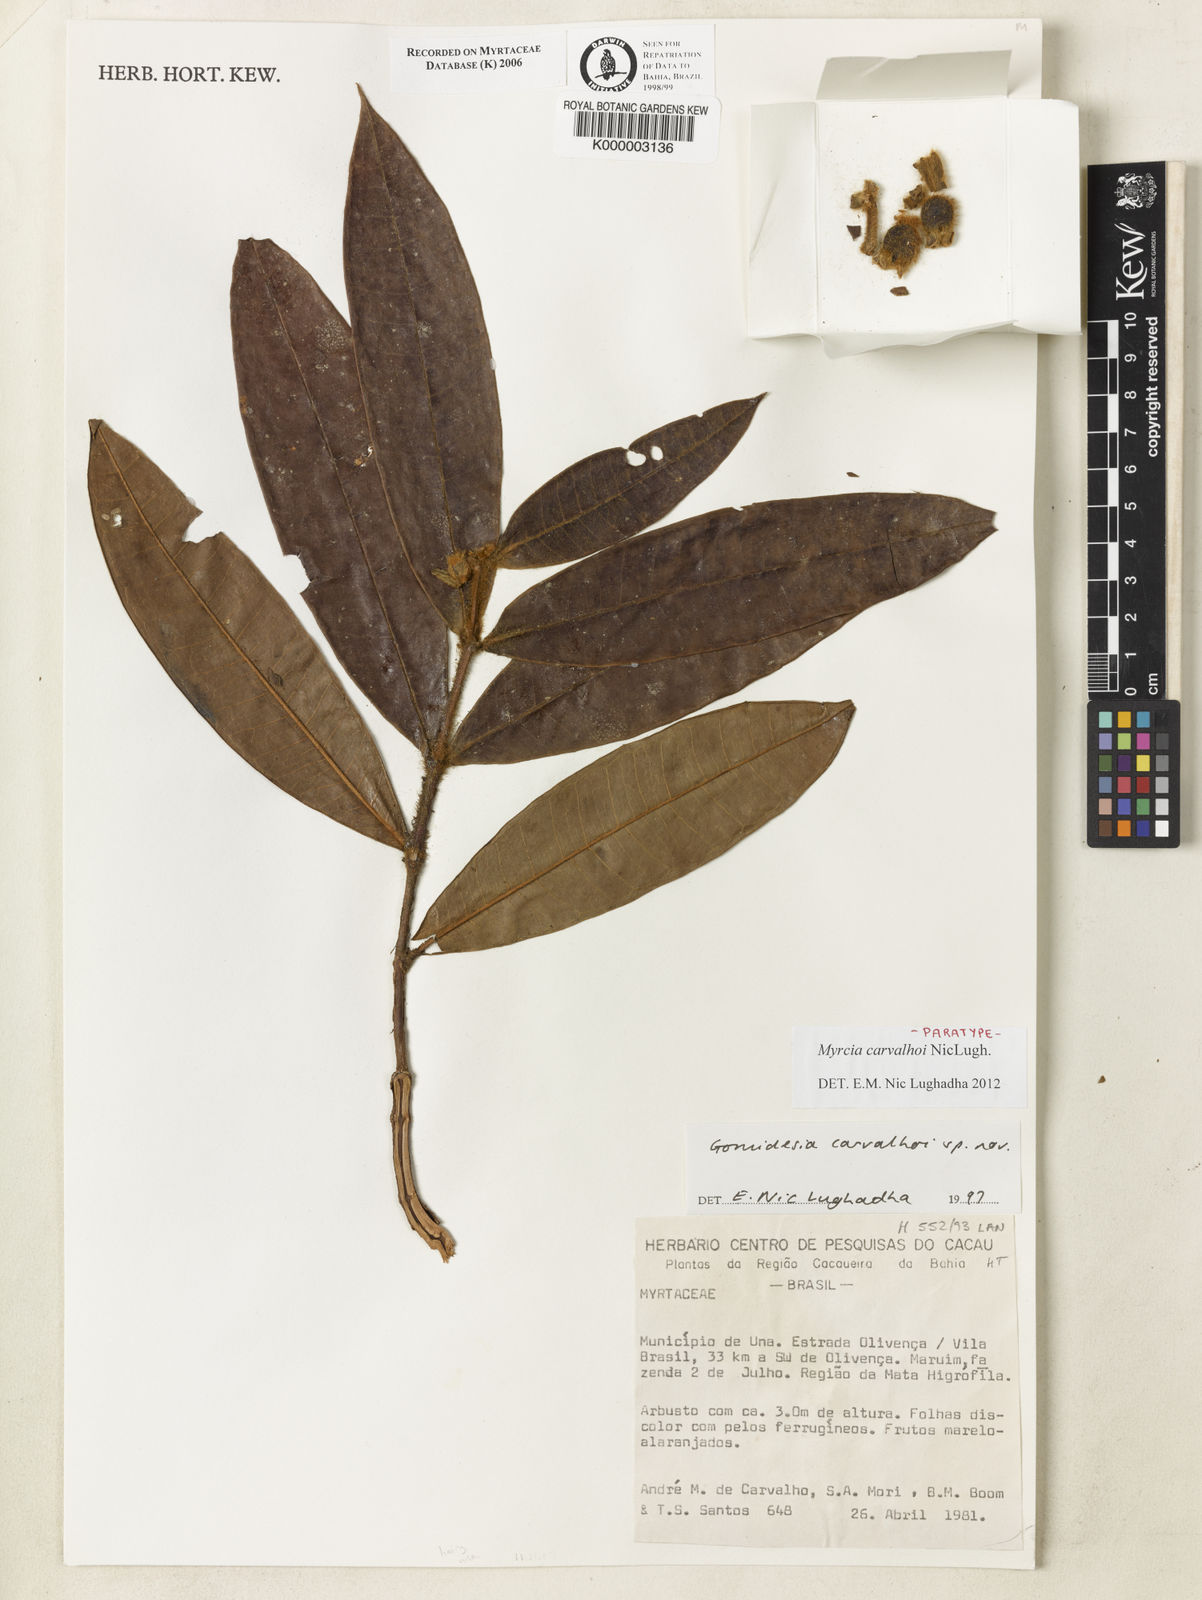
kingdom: Plantae
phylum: Tracheophyta
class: Magnoliopsida
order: Myrtales
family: Myrtaceae
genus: Myrcia
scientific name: Myrcia carvalhoi
